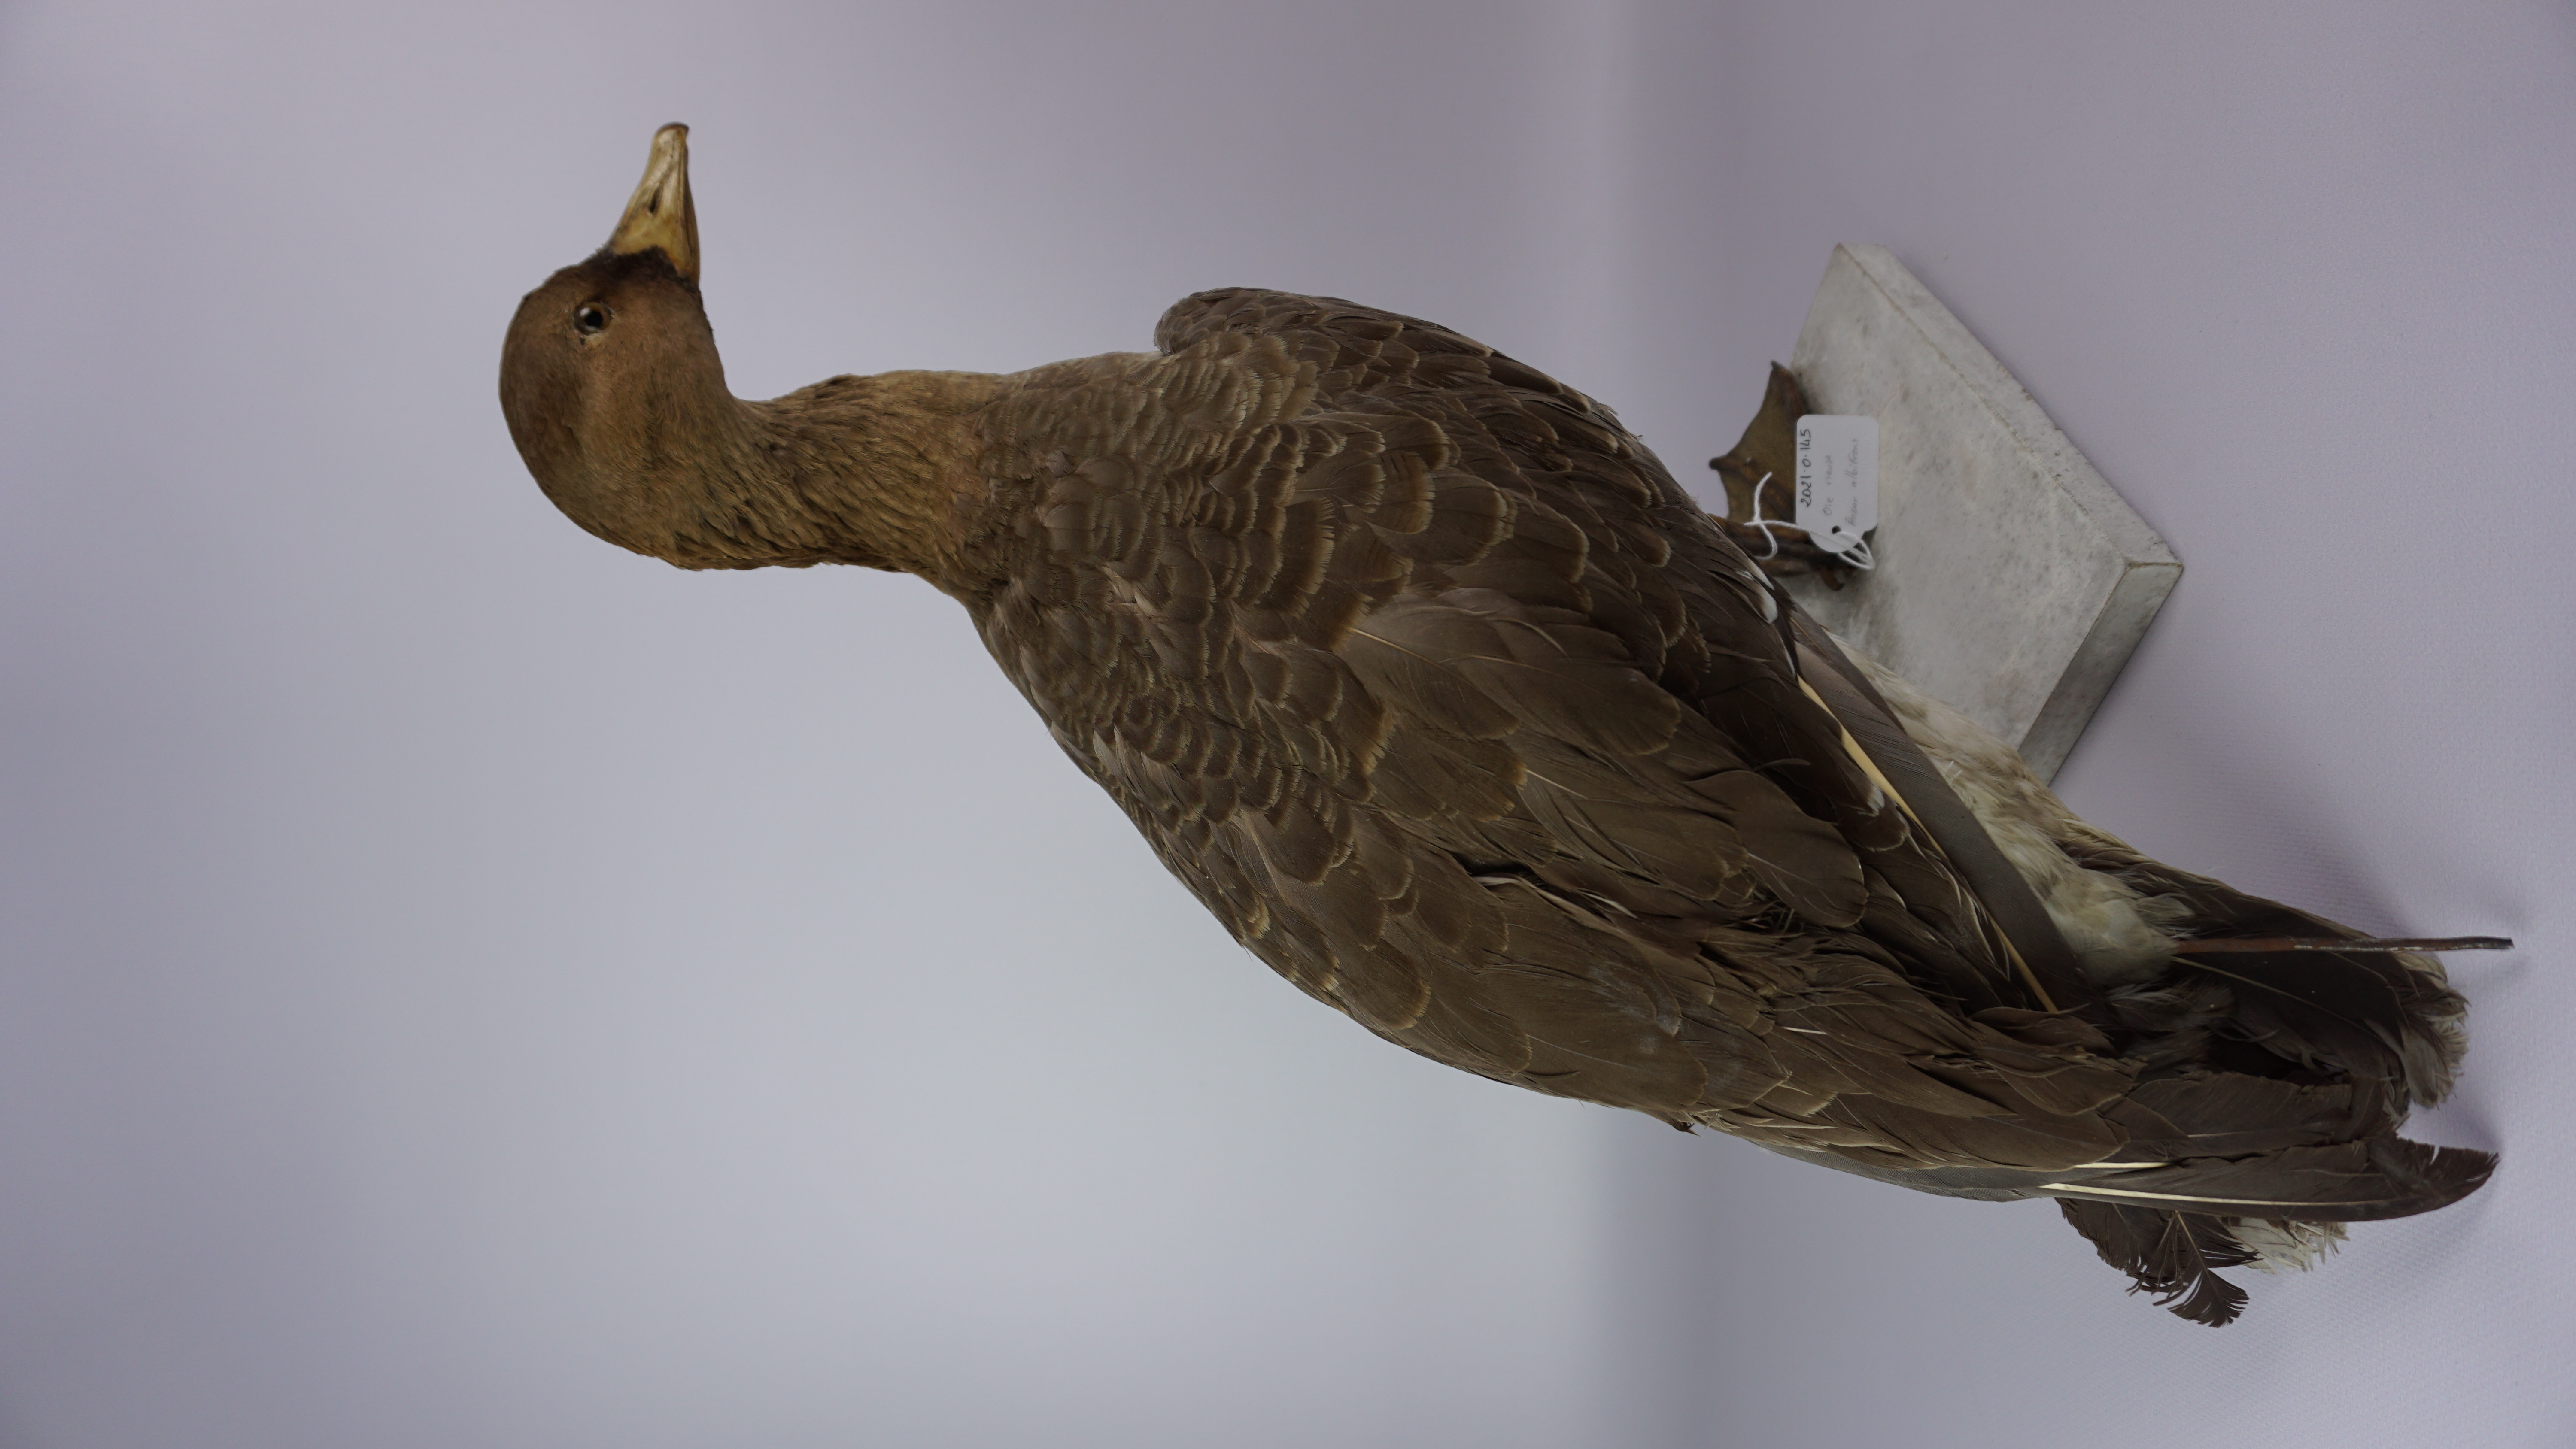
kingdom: Animalia
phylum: Chordata
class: Aves
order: Anseriformes
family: Anatidae
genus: Anser
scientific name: Anser albifrons
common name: Greater white-fronted goose
